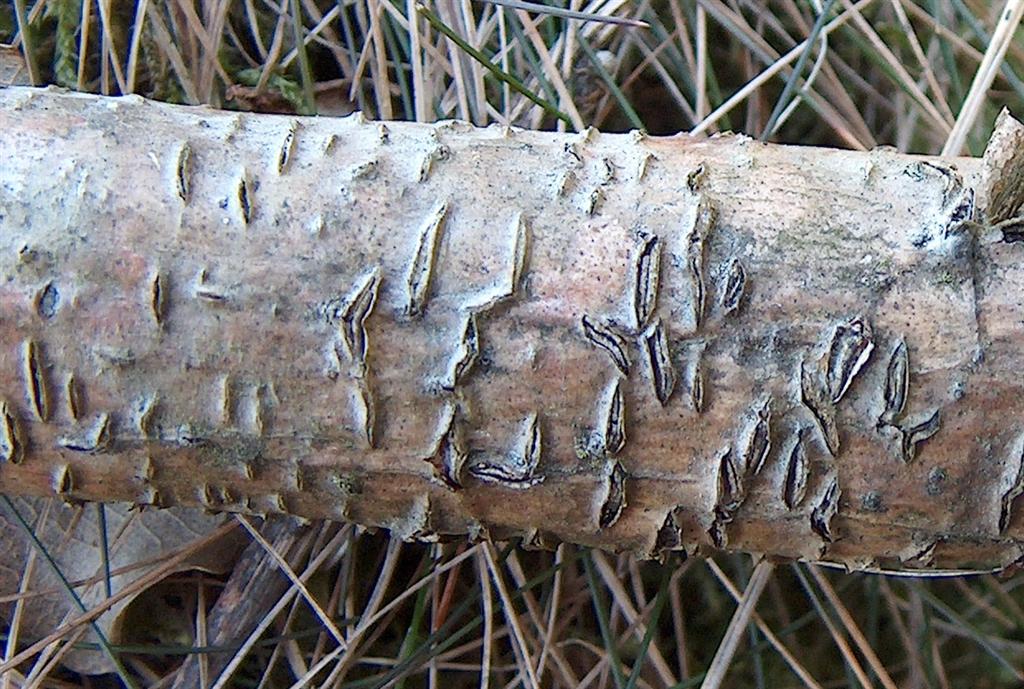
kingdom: Fungi
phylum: Ascomycota
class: Leotiomycetes
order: Rhytismatales
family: Rhytismataceae
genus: Colpoma
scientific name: Colpoma quercinum
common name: ege-sprækkeskive
